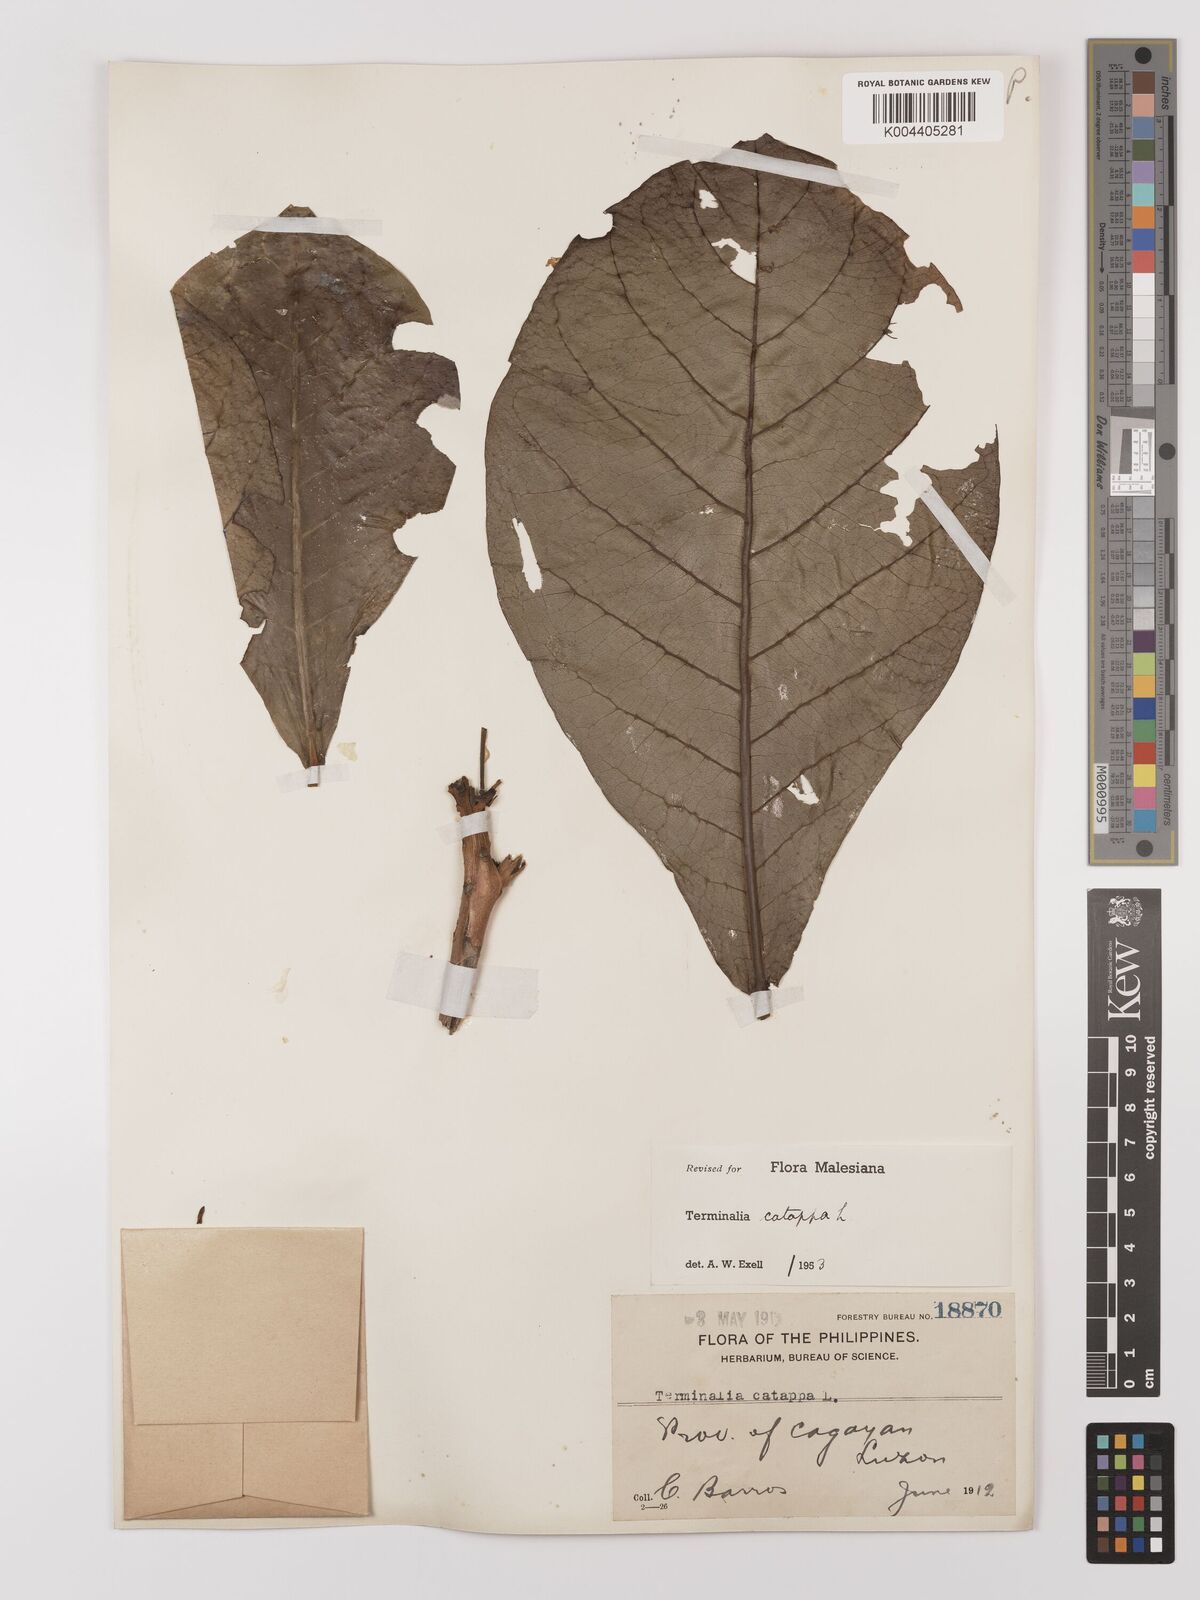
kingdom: Plantae
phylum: Tracheophyta
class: Magnoliopsida
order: Myrtales
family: Combretaceae
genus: Terminalia
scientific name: Terminalia catappa
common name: Tropical almond
